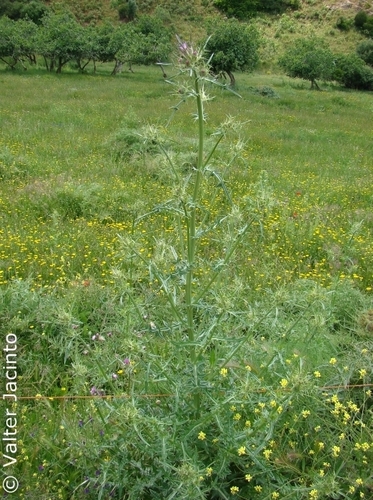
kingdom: Plantae
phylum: Tracheophyta
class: Magnoliopsida
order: Asterales
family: Asteraceae
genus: Notobasis
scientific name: Notobasis syriaca
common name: Syrian thistle
